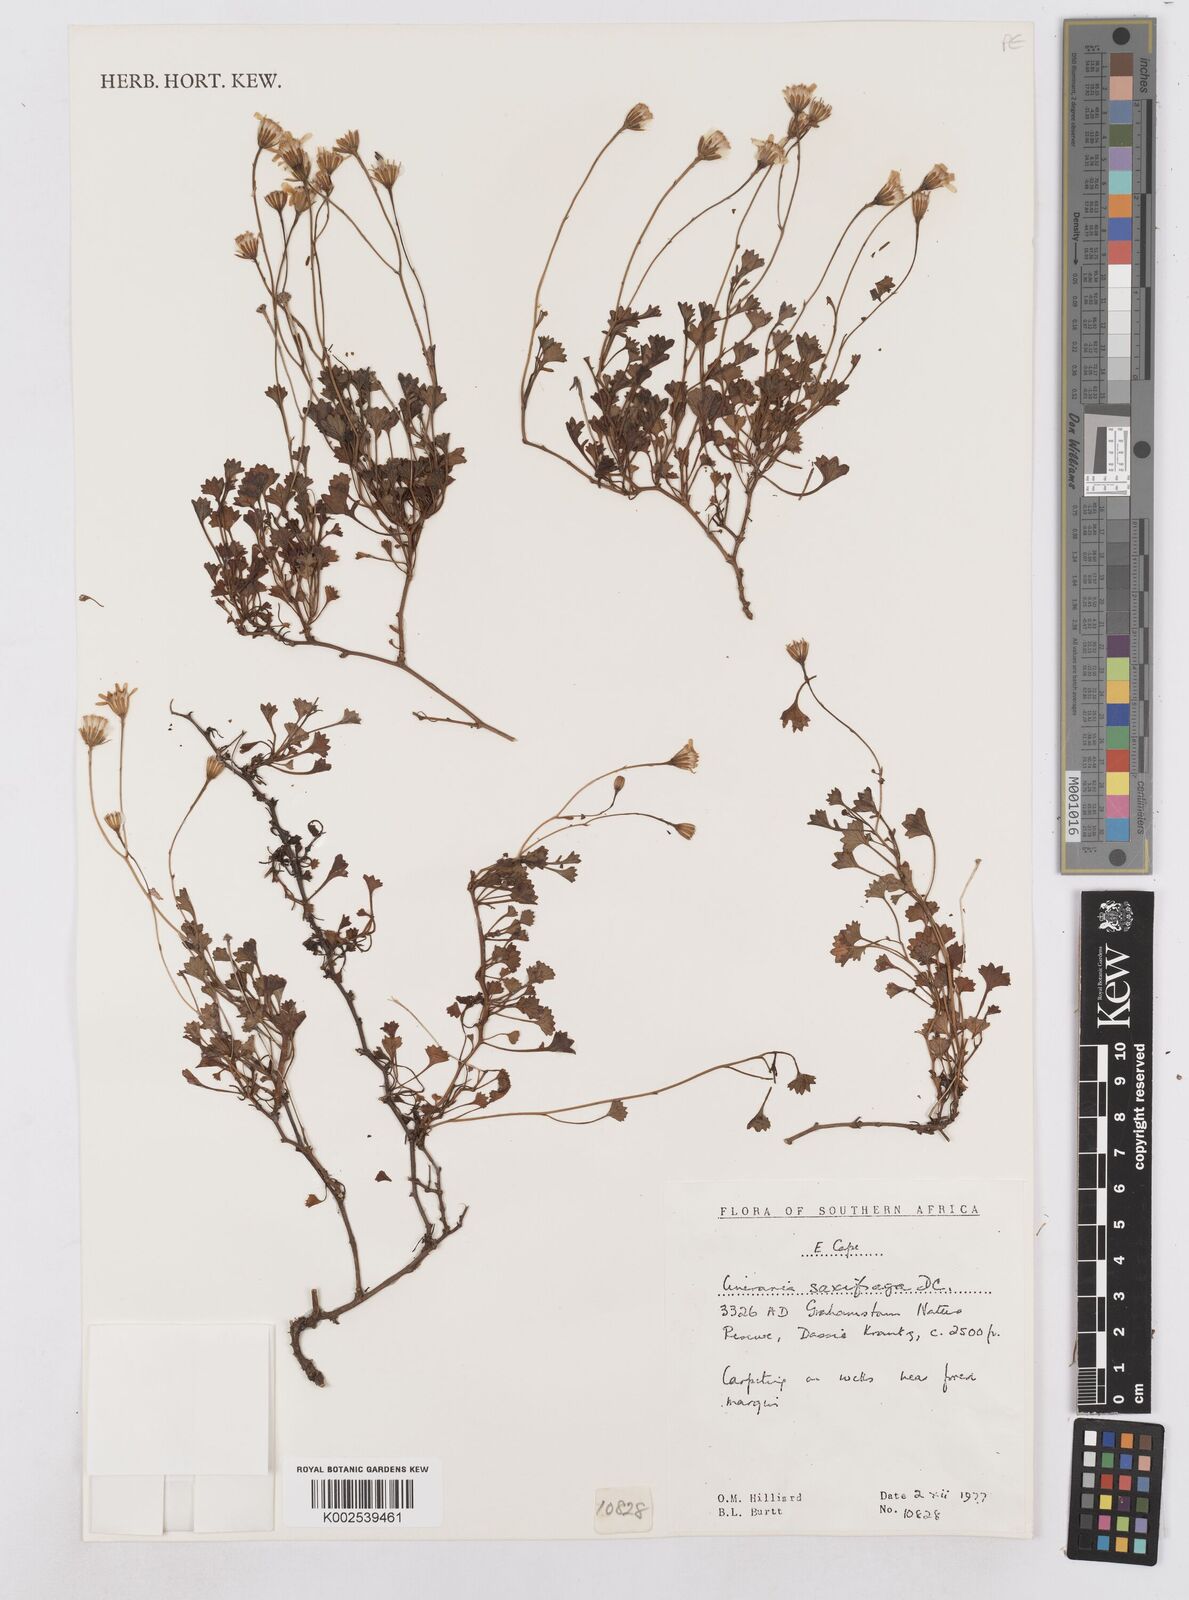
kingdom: Plantae
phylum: Tracheophyta
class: Magnoliopsida
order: Asterales
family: Asteraceae
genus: Cineraria
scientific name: Cineraria saxifraga
